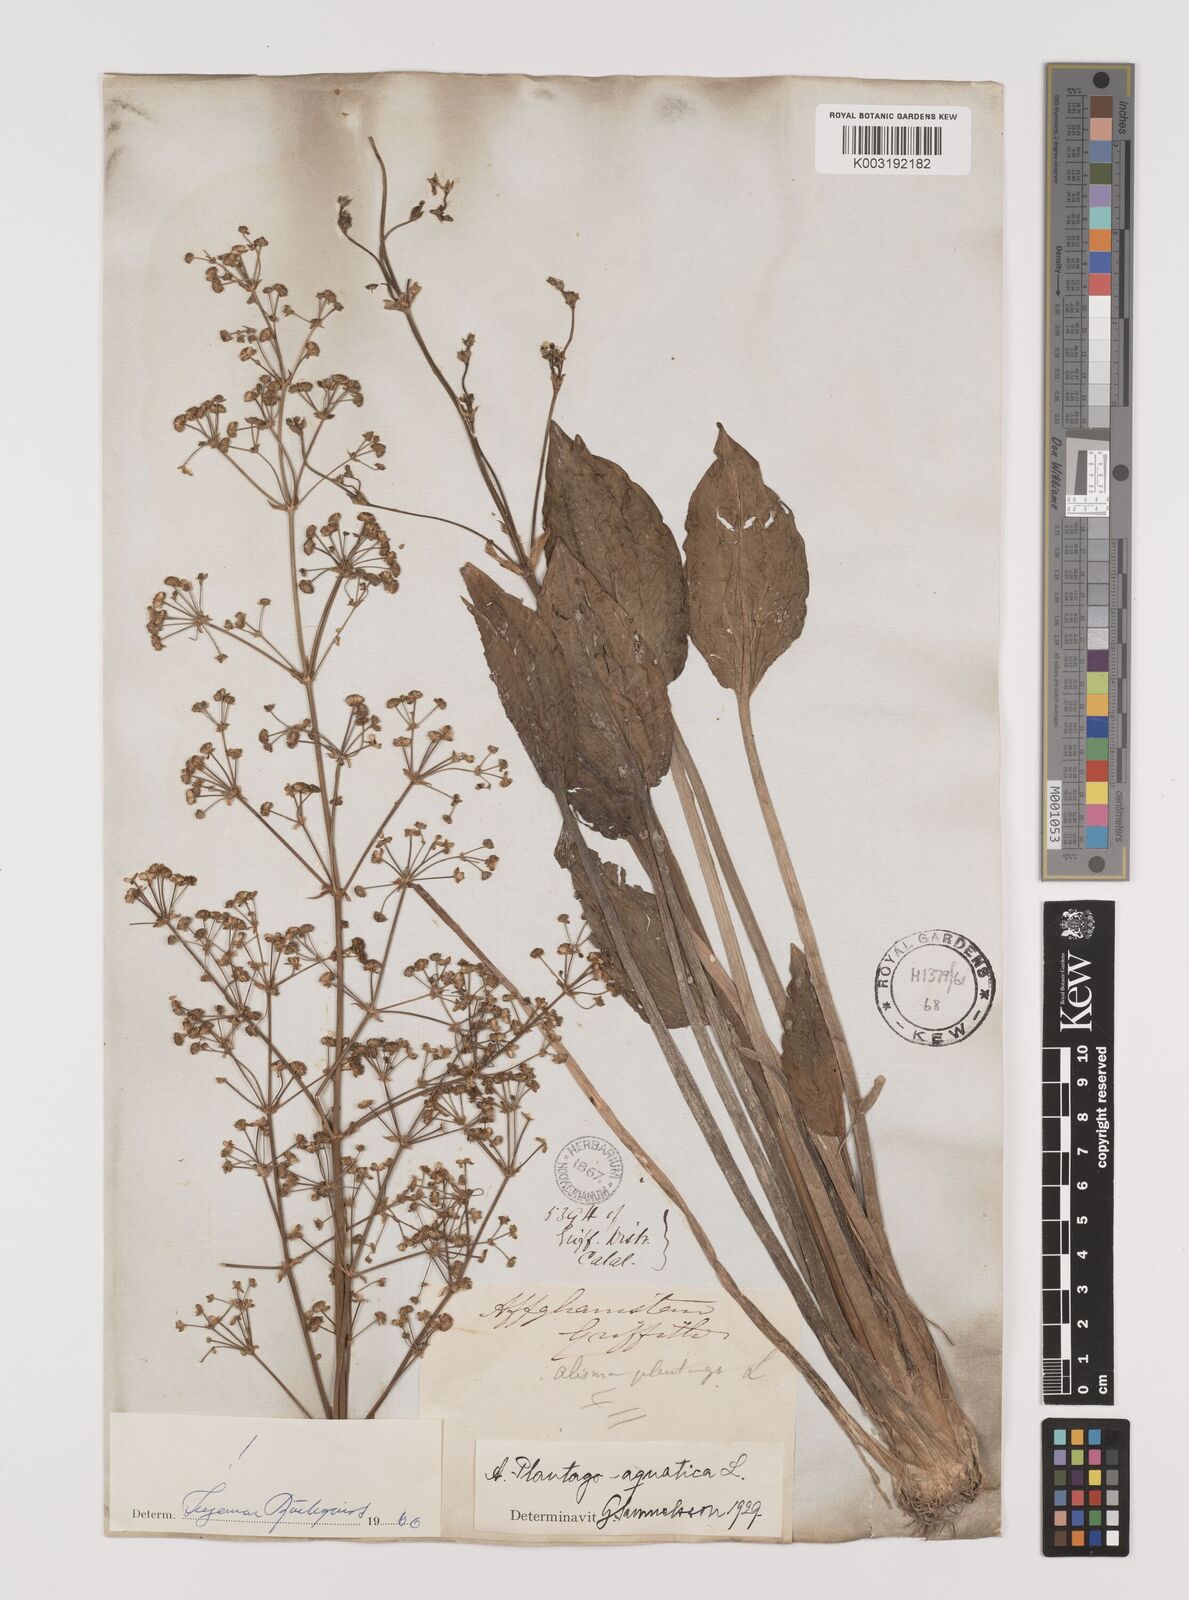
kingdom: Plantae
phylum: Tracheophyta
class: Liliopsida
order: Alismatales
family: Alismataceae
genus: Alisma
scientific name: Alisma plantago-aquatica
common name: Water-plantain
